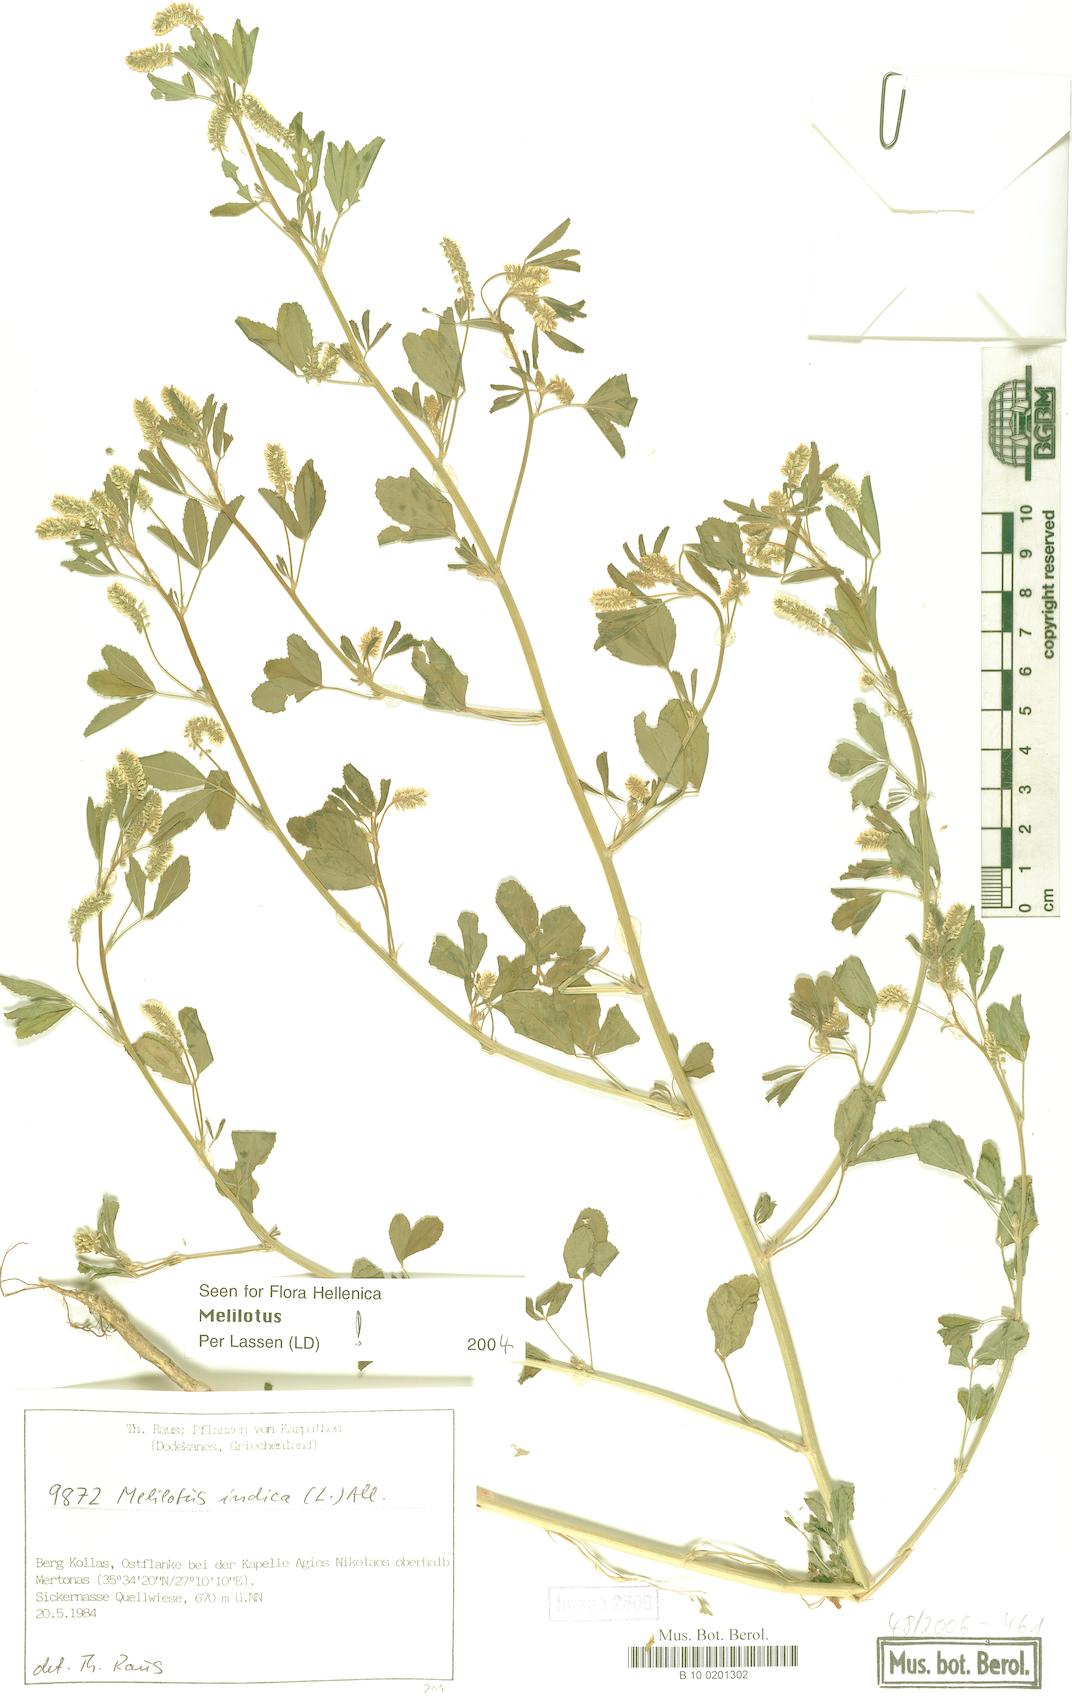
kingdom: Plantae
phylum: Tracheophyta
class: Magnoliopsida
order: Fabales
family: Fabaceae
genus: Melilotus
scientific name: Melilotus indicus
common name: Small melilot
